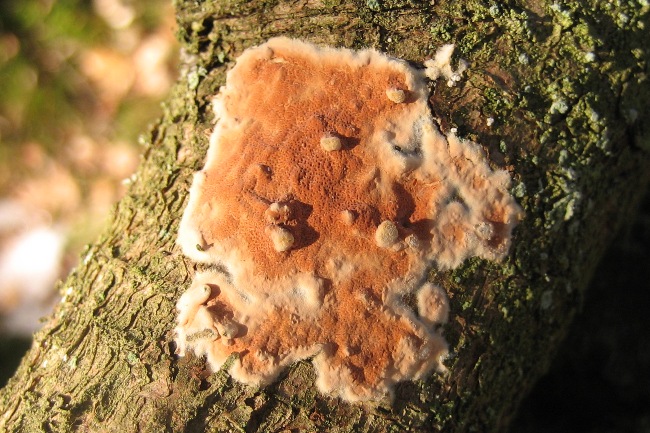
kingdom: Fungi
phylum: Basidiomycota
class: Agaricomycetes
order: Polyporales
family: Irpicaceae
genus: Meruliopsis
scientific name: Meruliopsis taxicola
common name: purpurbrun foldporesvamp
